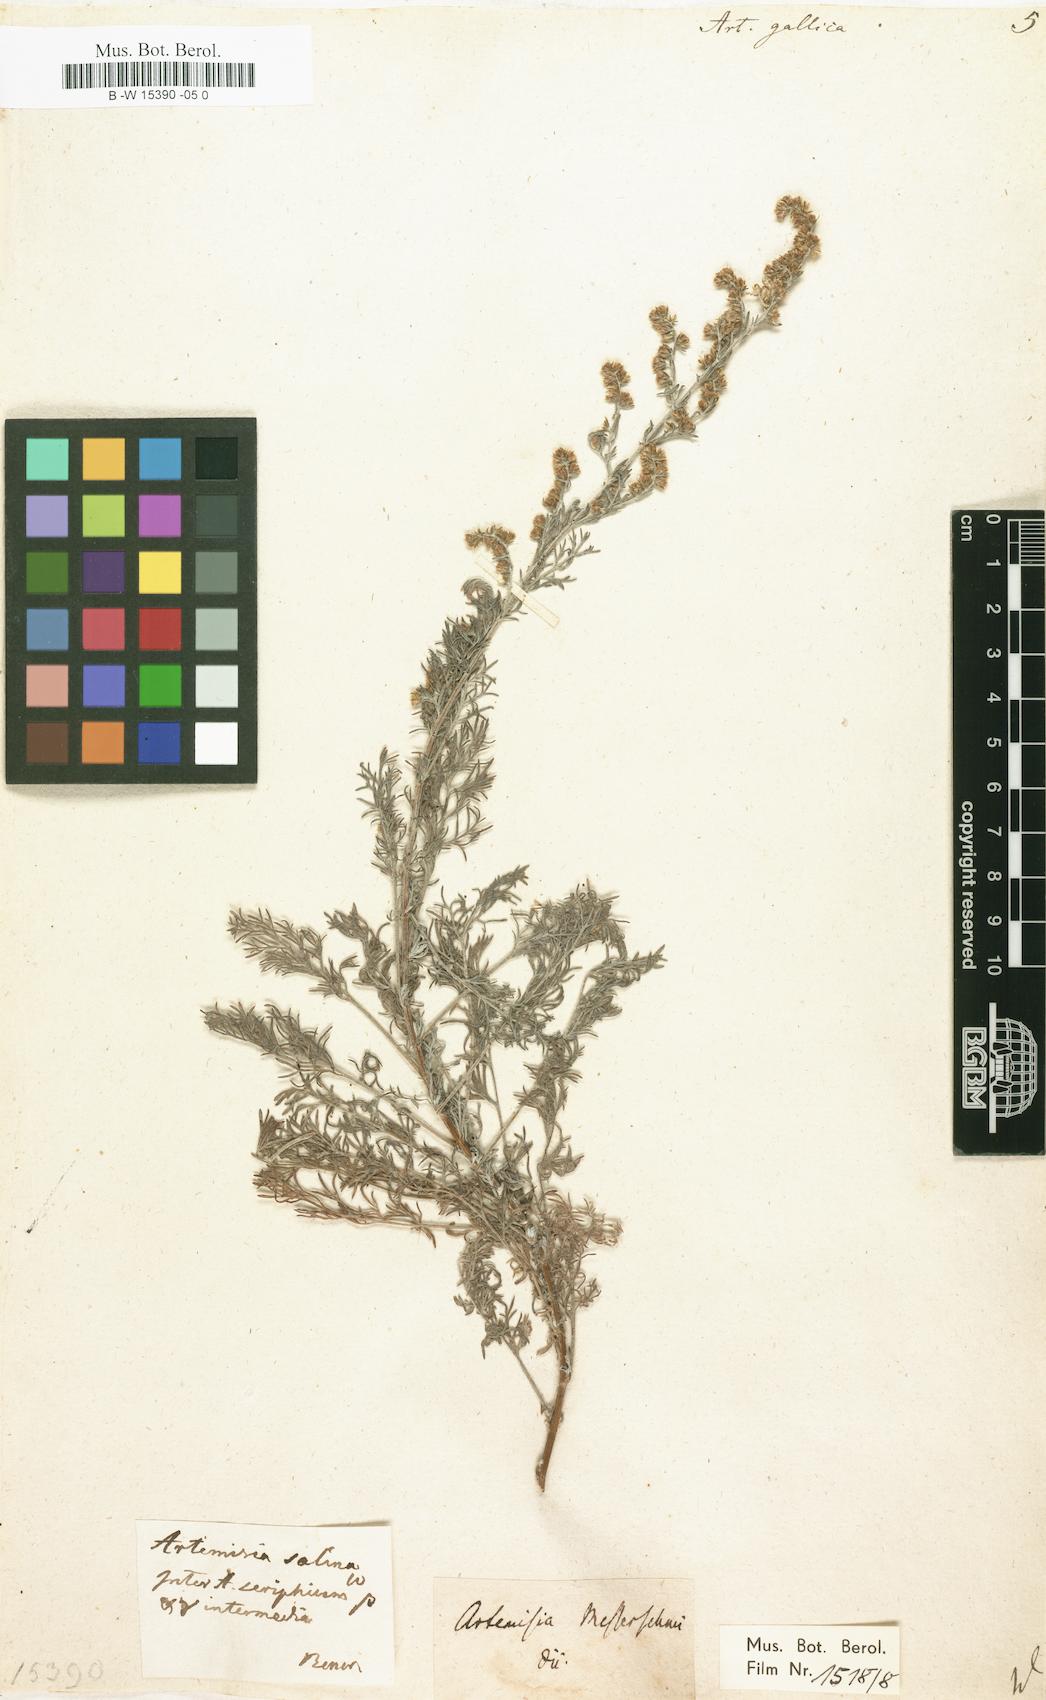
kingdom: Plantae
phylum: Tracheophyta
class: Magnoliopsida
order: Asterales
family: Asteraceae
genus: Artemisia
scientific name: Artemisia caerulescens
